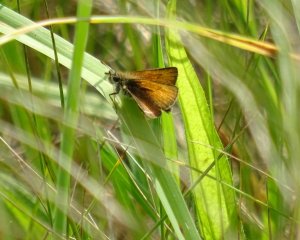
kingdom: Animalia
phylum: Arthropoda
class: Insecta
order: Lepidoptera
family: Hesperiidae
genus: Thymelicus
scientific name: Thymelicus lineola
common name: European Skipper
